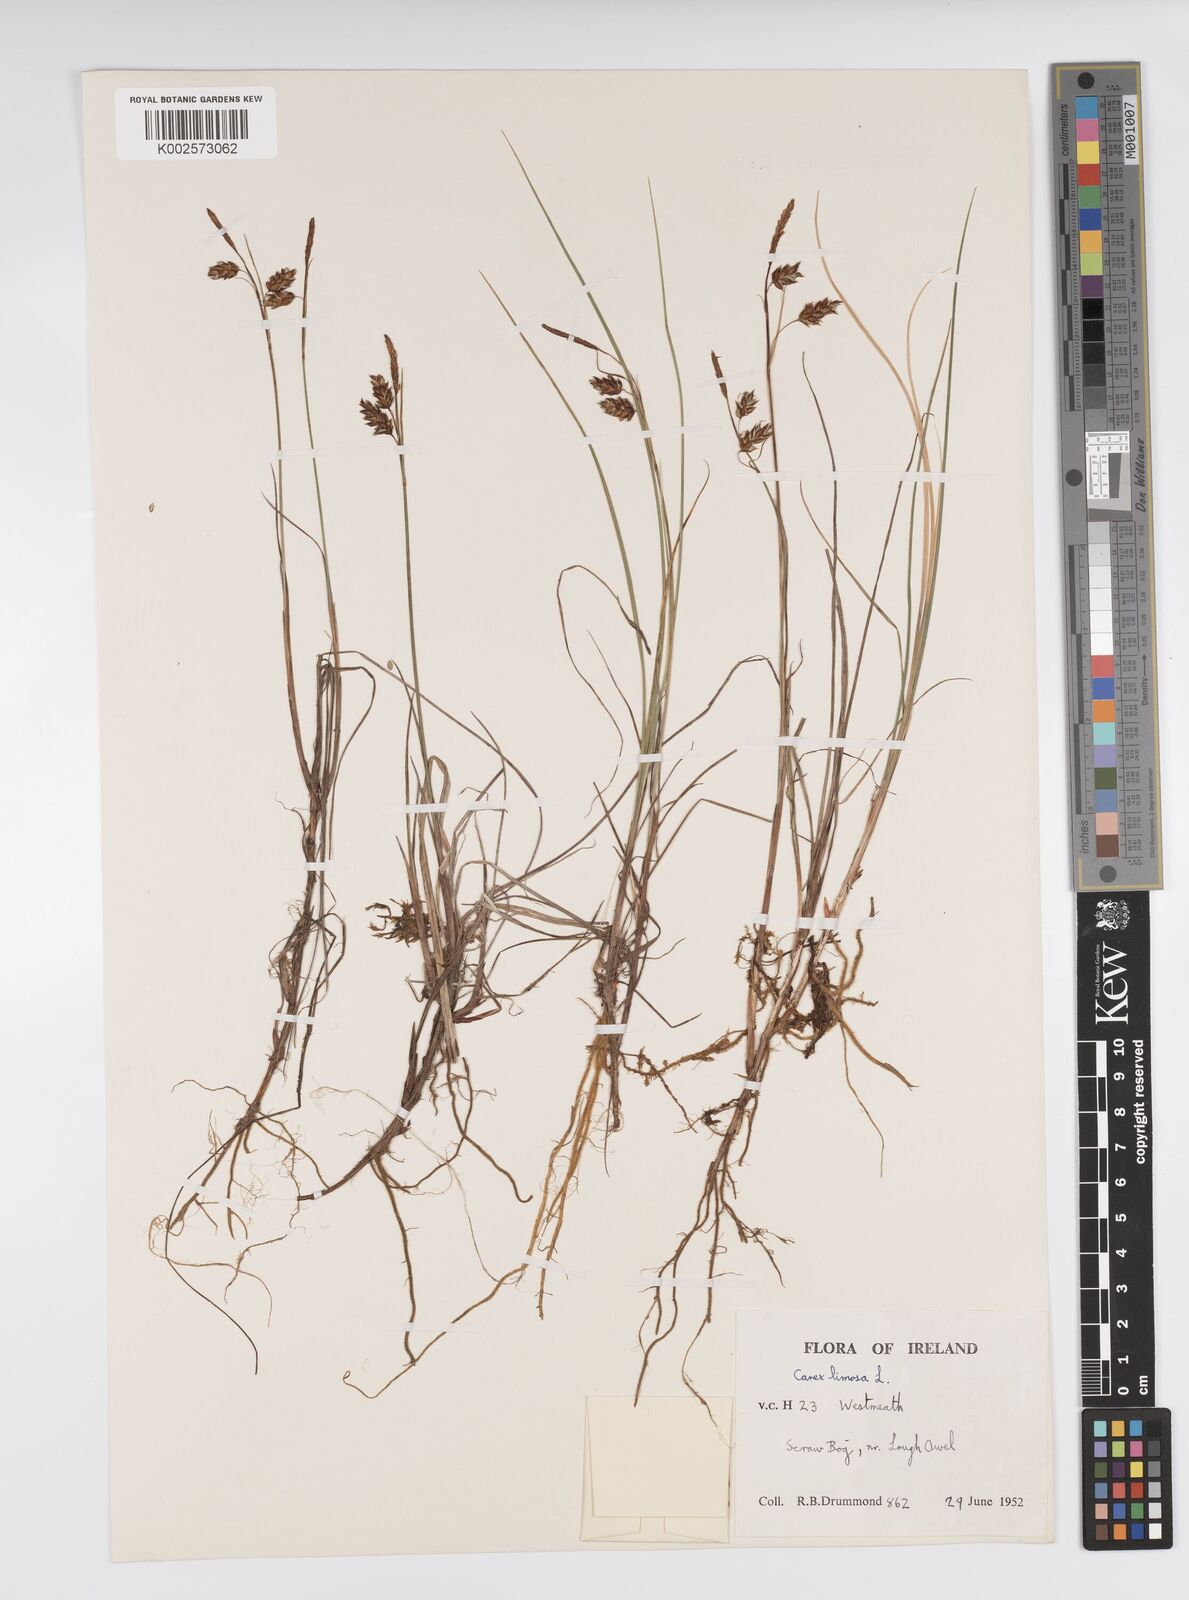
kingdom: Plantae
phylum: Tracheophyta
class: Liliopsida
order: Poales
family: Cyperaceae
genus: Carex
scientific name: Carex limosa
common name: Bog sedge
